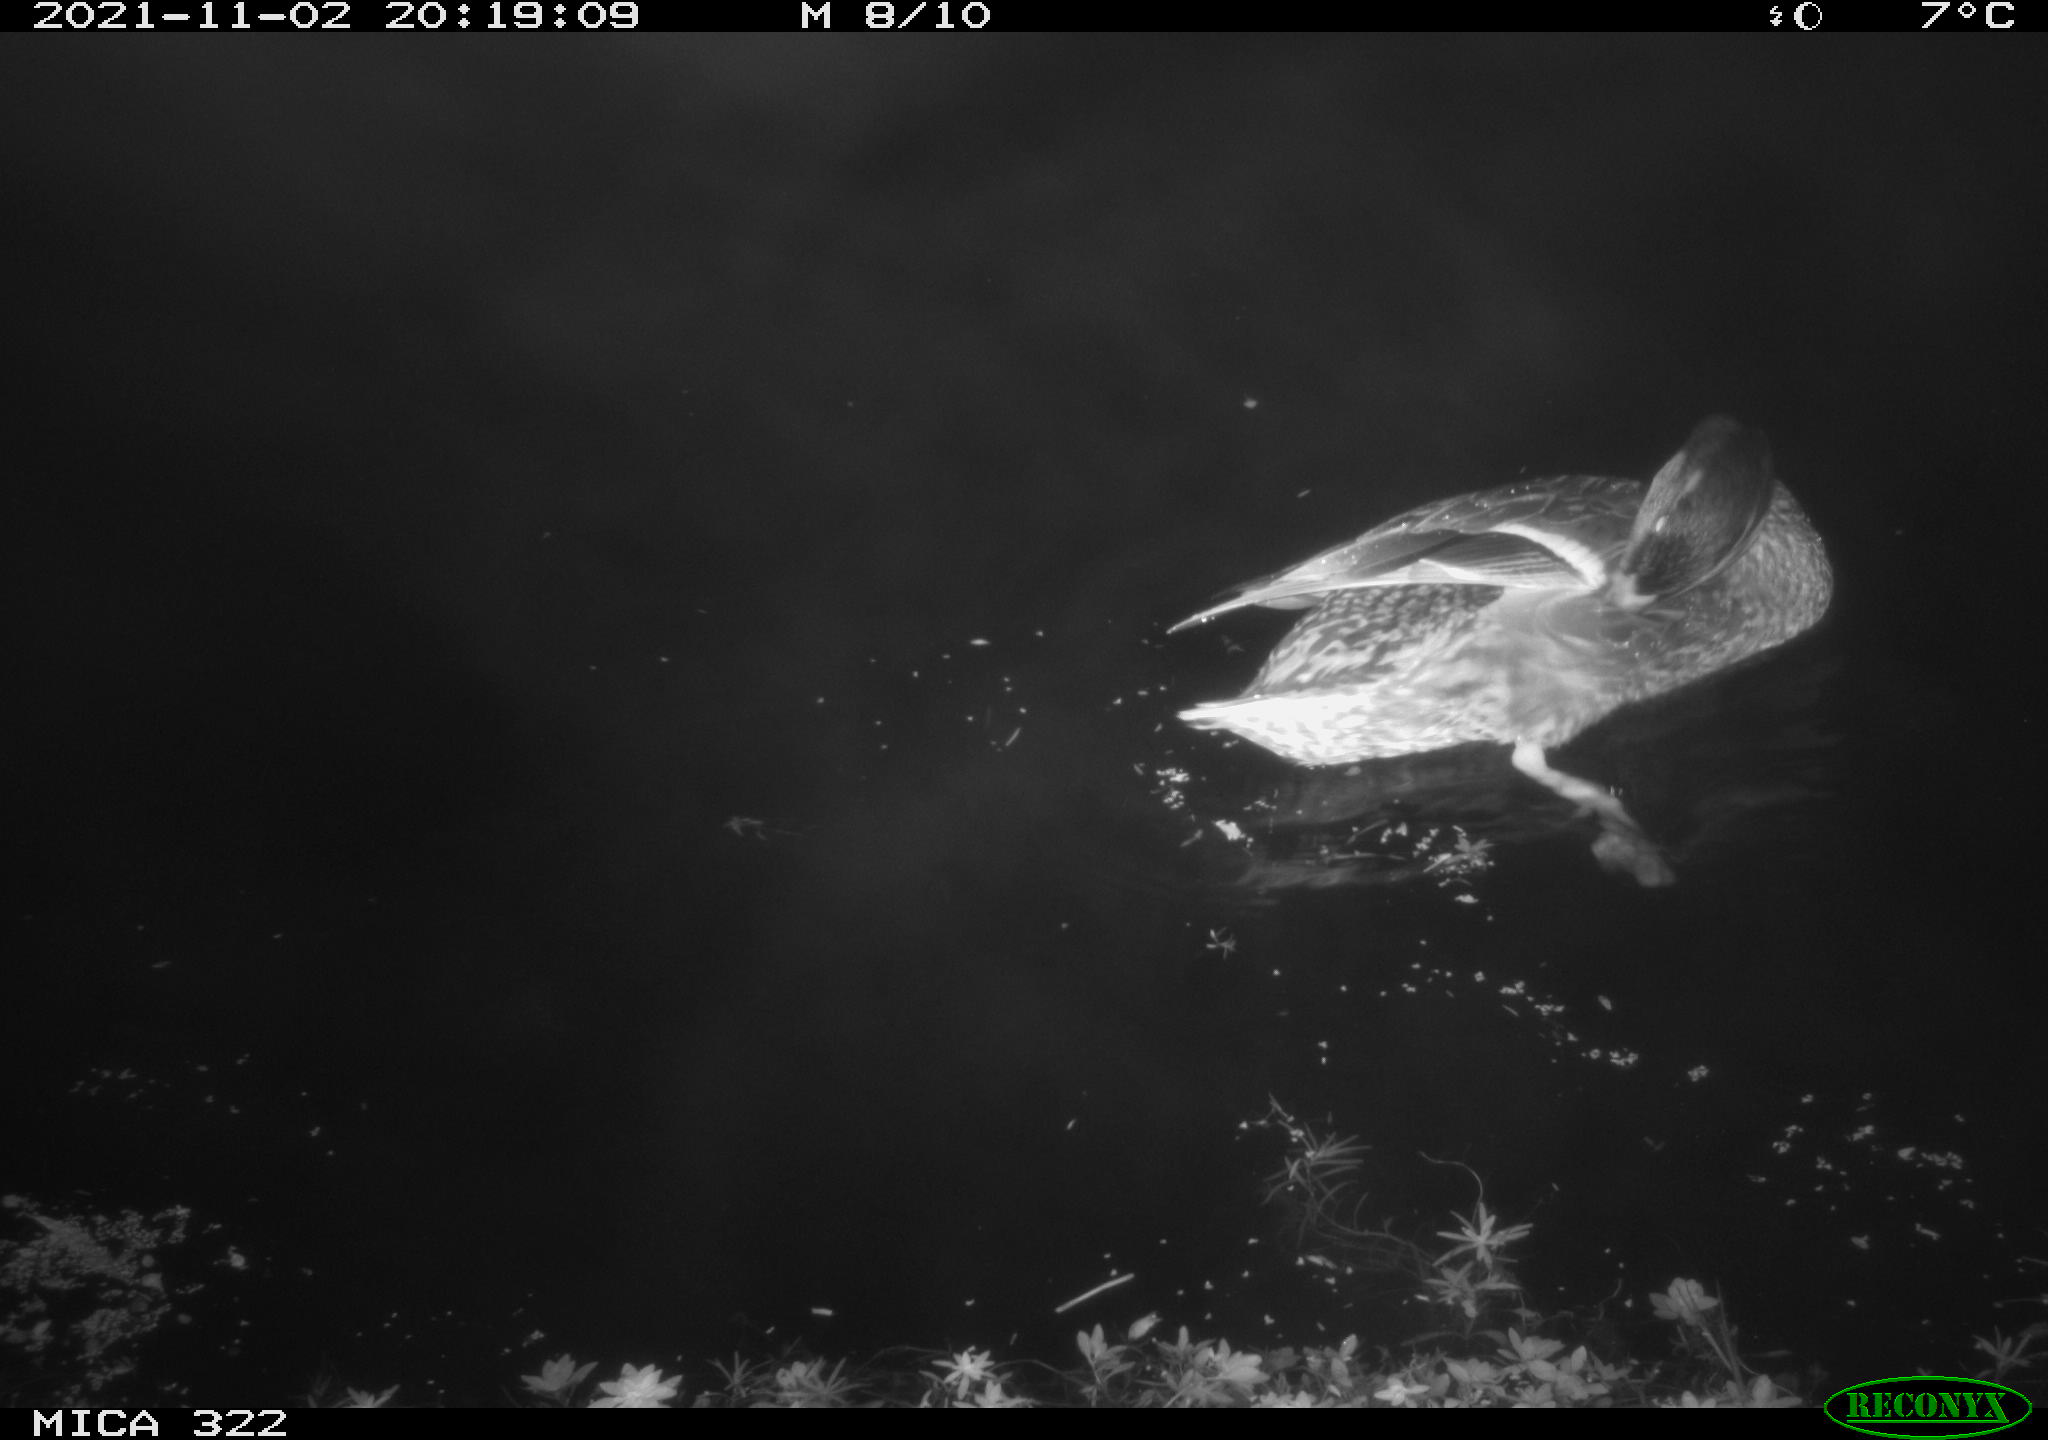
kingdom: Animalia
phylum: Chordata
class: Aves
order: Anseriformes
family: Anatidae
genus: Mareca
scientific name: Mareca strepera
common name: Gadwall
